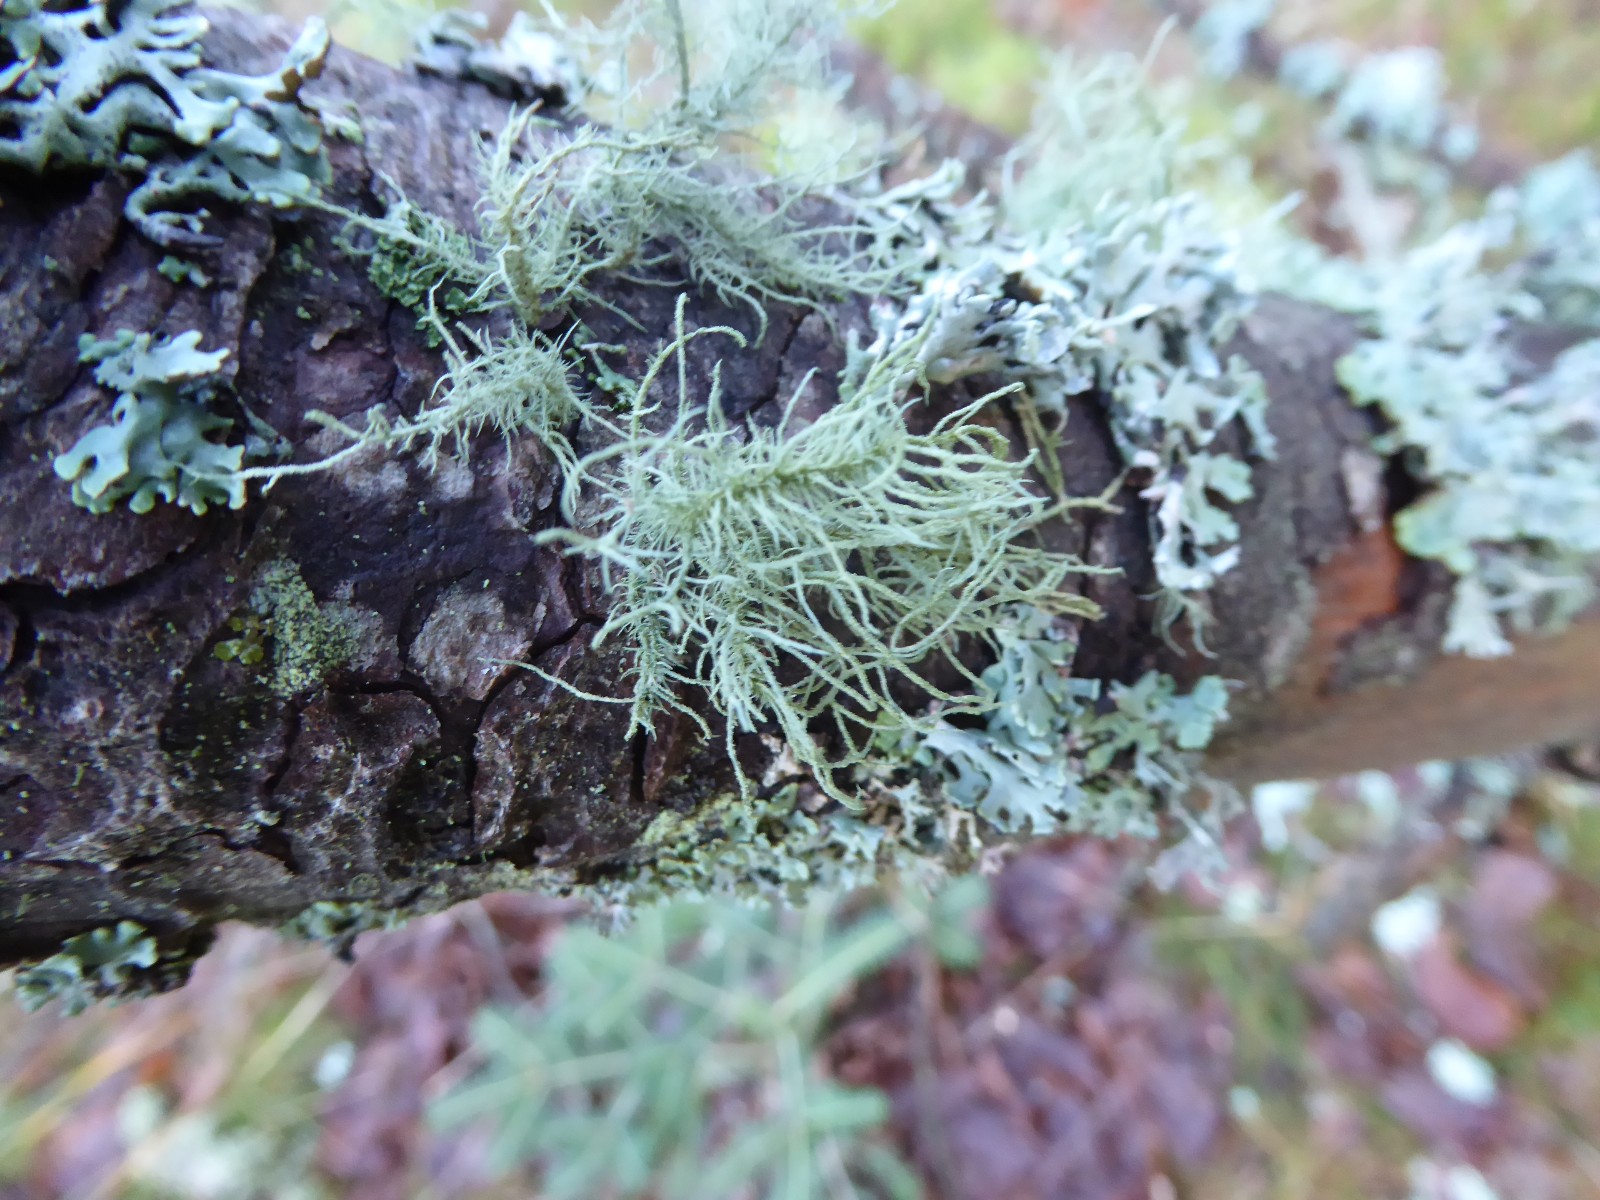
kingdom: Fungi
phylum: Ascomycota
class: Lecanoromycetes
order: Lecanorales
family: Parmeliaceae
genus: Usnea
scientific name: Usnea hirta
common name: liden skæglav
